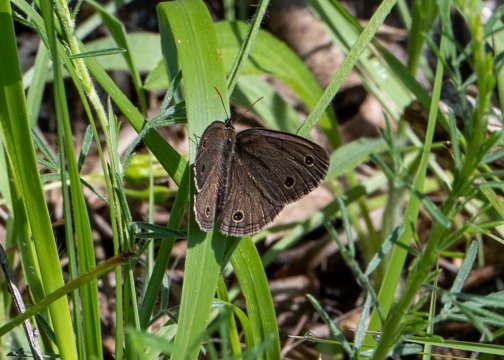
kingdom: Animalia
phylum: Arthropoda
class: Insecta
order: Lepidoptera
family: Nymphalidae
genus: Euptychia
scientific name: Euptychia cymela
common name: Little Wood Satyr
